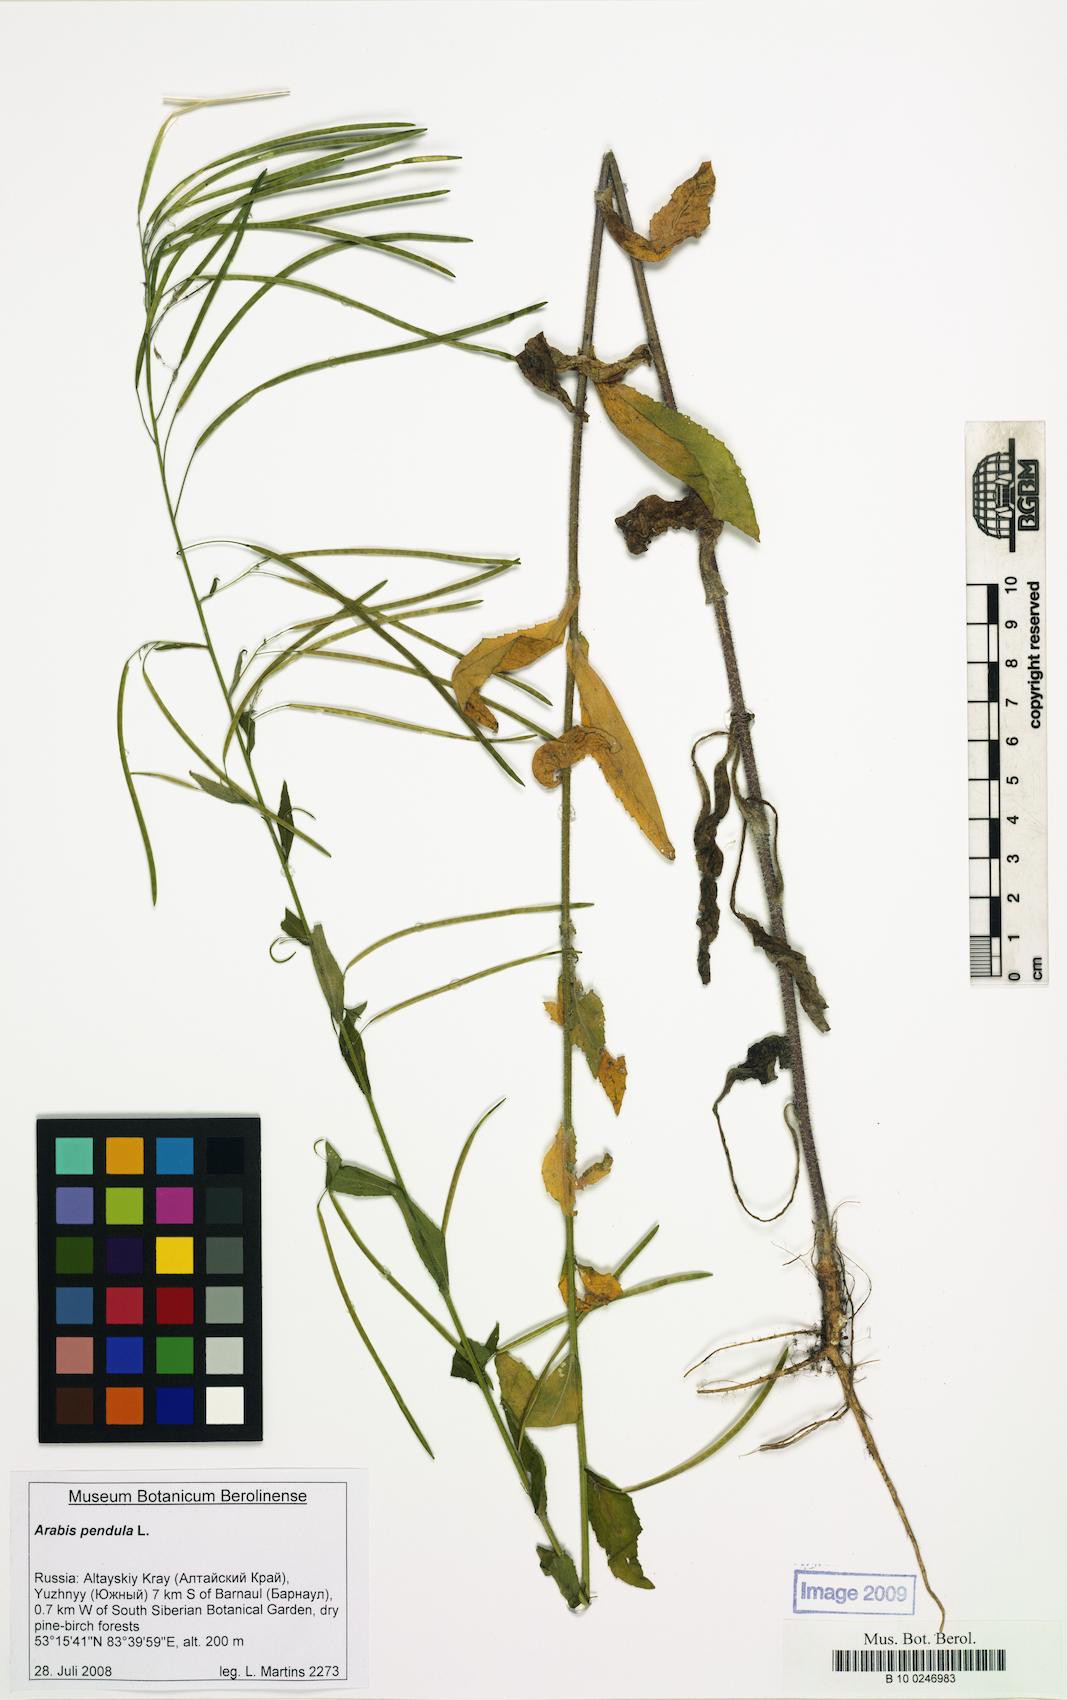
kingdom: Plantae
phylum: Tracheophyta
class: Magnoliopsida
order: Brassicales
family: Brassicaceae
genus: Catolobus
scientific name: Catolobus pendulus
